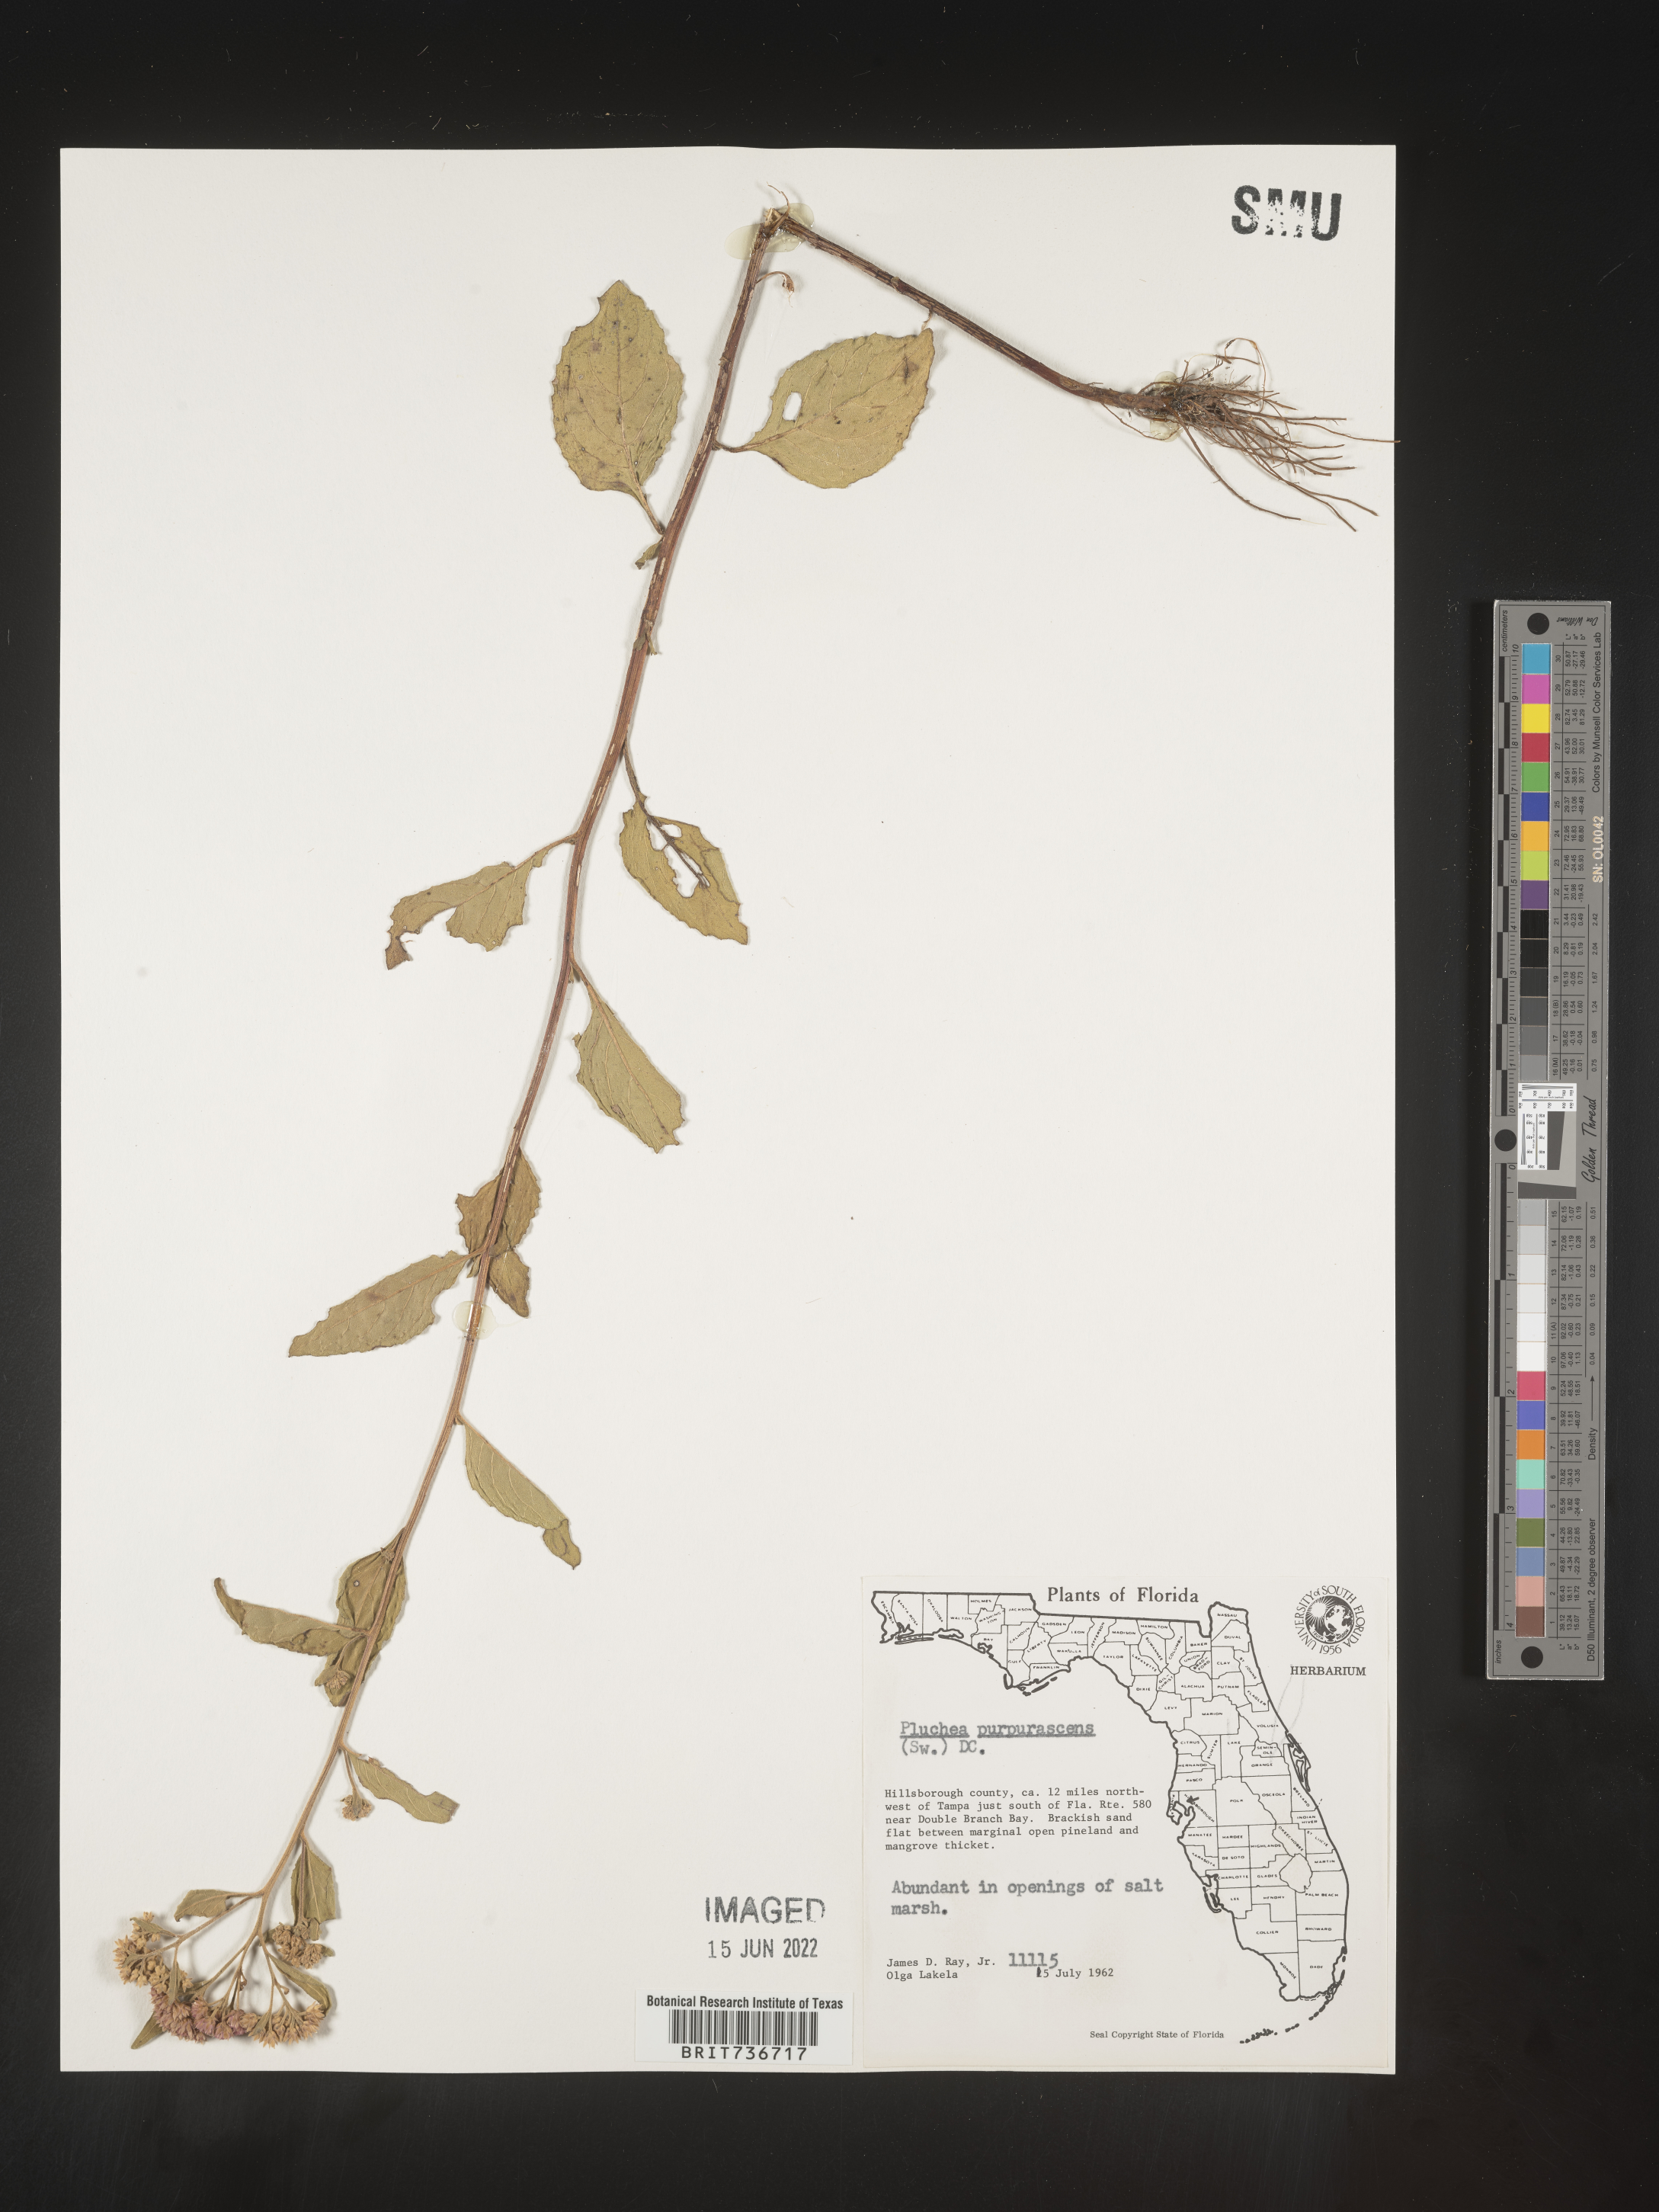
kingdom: Plantae
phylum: Tracheophyta
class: Magnoliopsida
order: Asterales
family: Asteraceae
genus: Pluchea
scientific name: Pluchea odorata
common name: Saltmarsh fleabane
